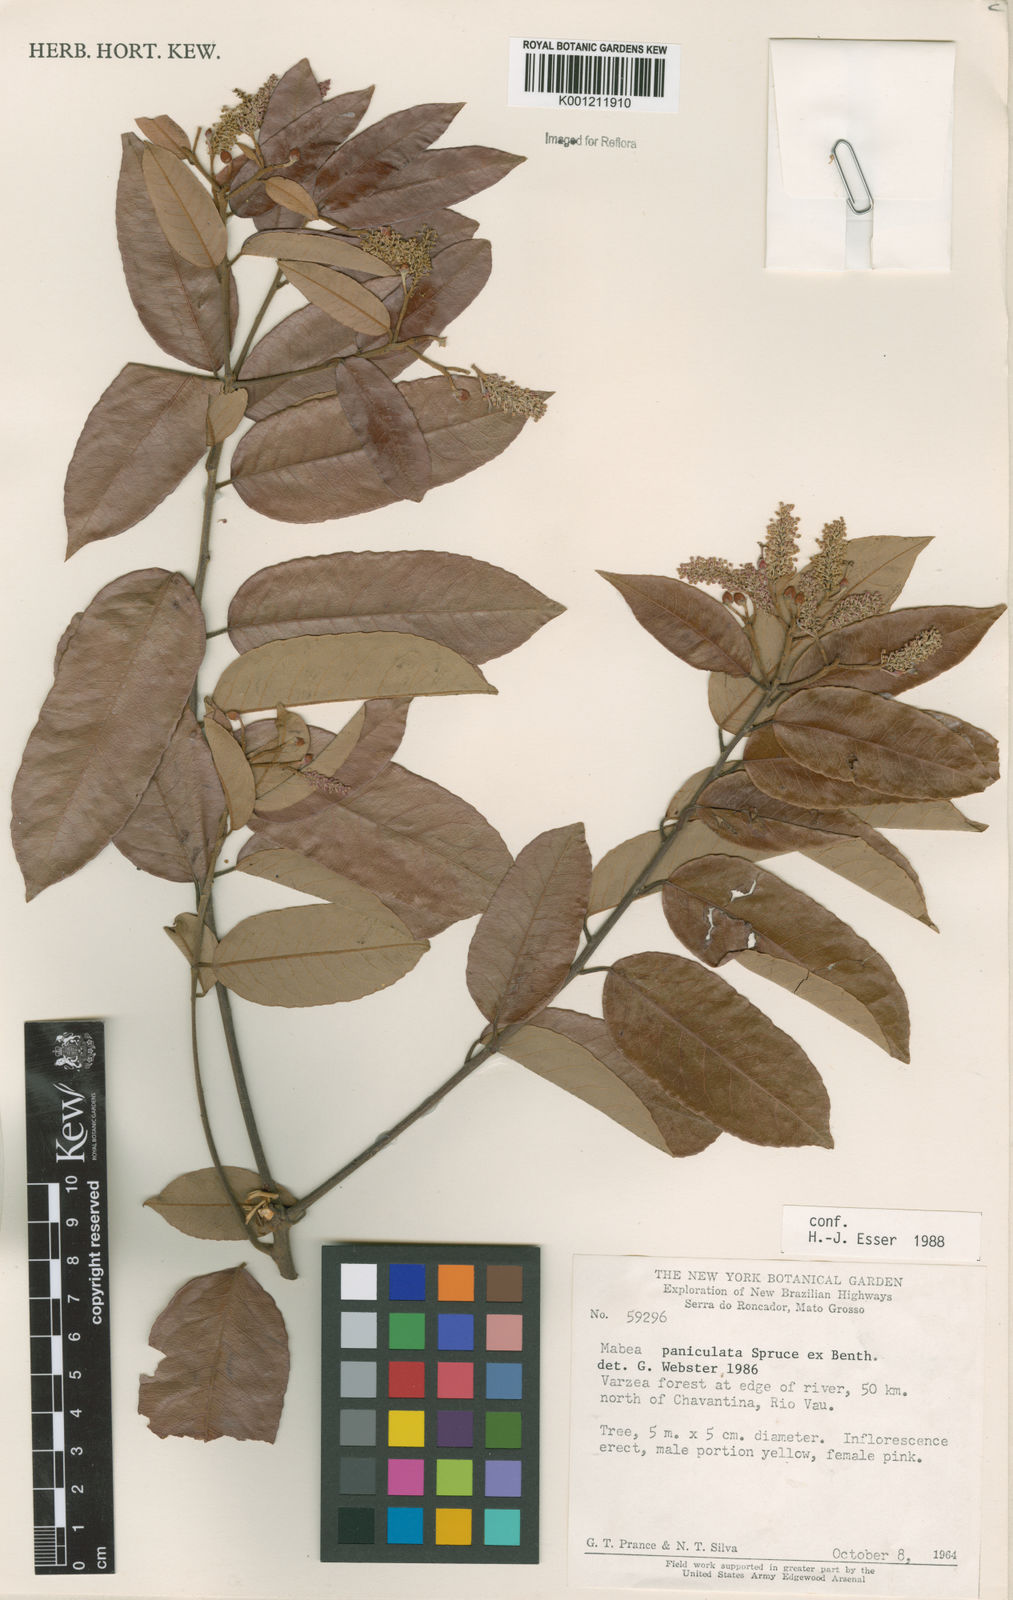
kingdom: Plantae
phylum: Tracheophyta
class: Magnoliopsida
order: Malpighiales
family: Euphorbiaceae
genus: Mabea
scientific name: Mabea paniculata
